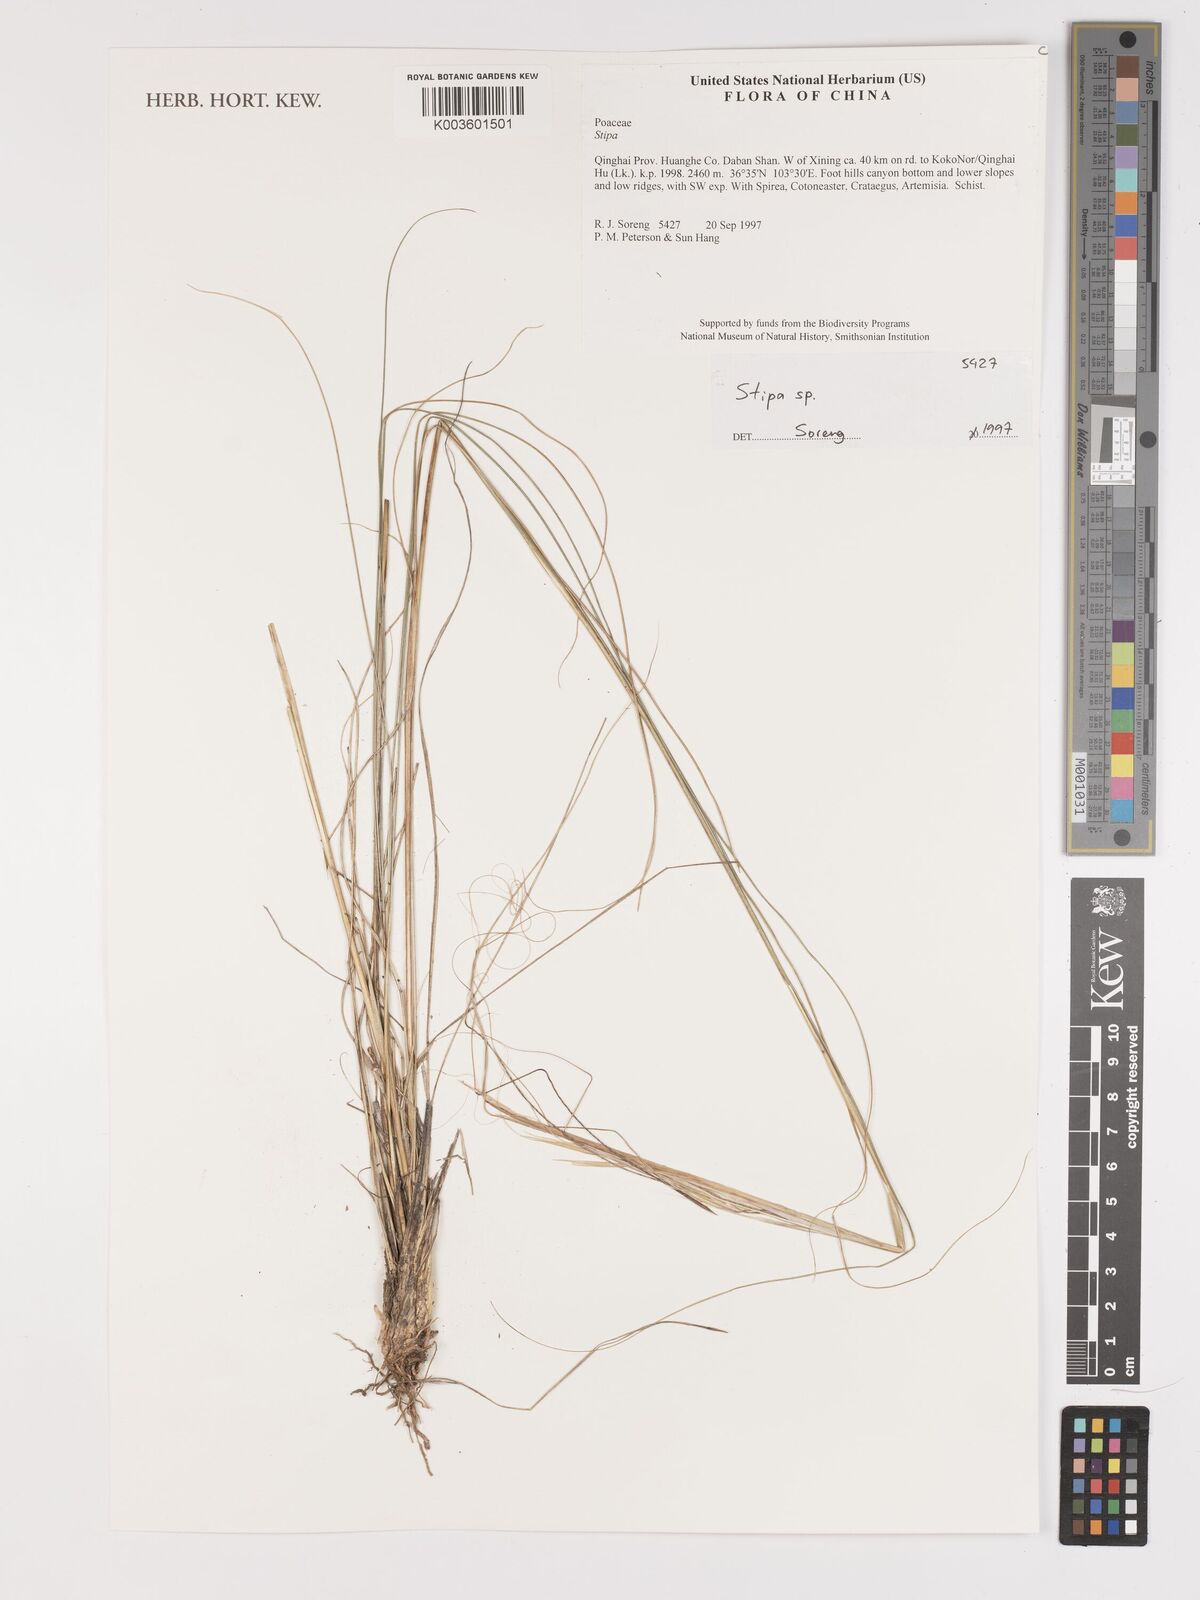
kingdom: Plantae
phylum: Tracheophyta
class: Liliopsida
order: Poales
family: Poaceae
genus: Stipa
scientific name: Stipa
